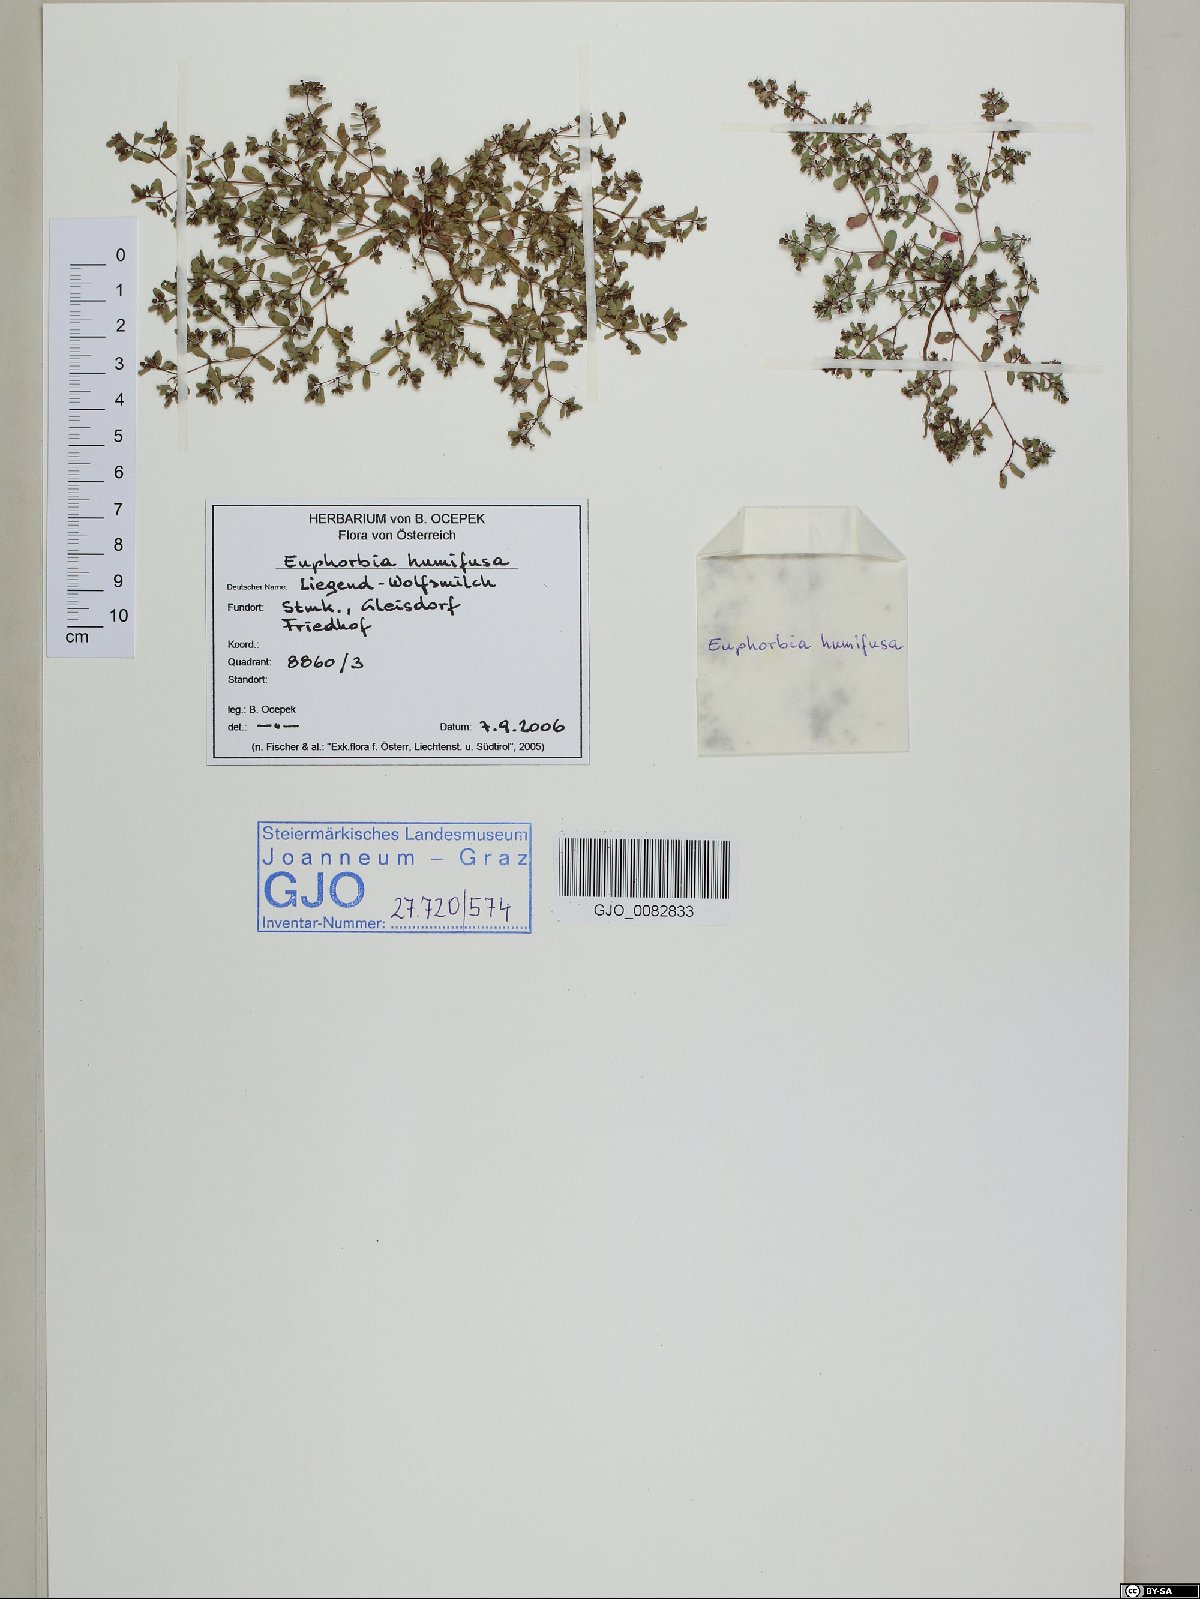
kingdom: Plantae
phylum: Tracheophyta
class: Magnoliopsida
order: Malpighiales
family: Euphorbiaceae
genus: Euphorbia
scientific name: Euphorbia humifusa
